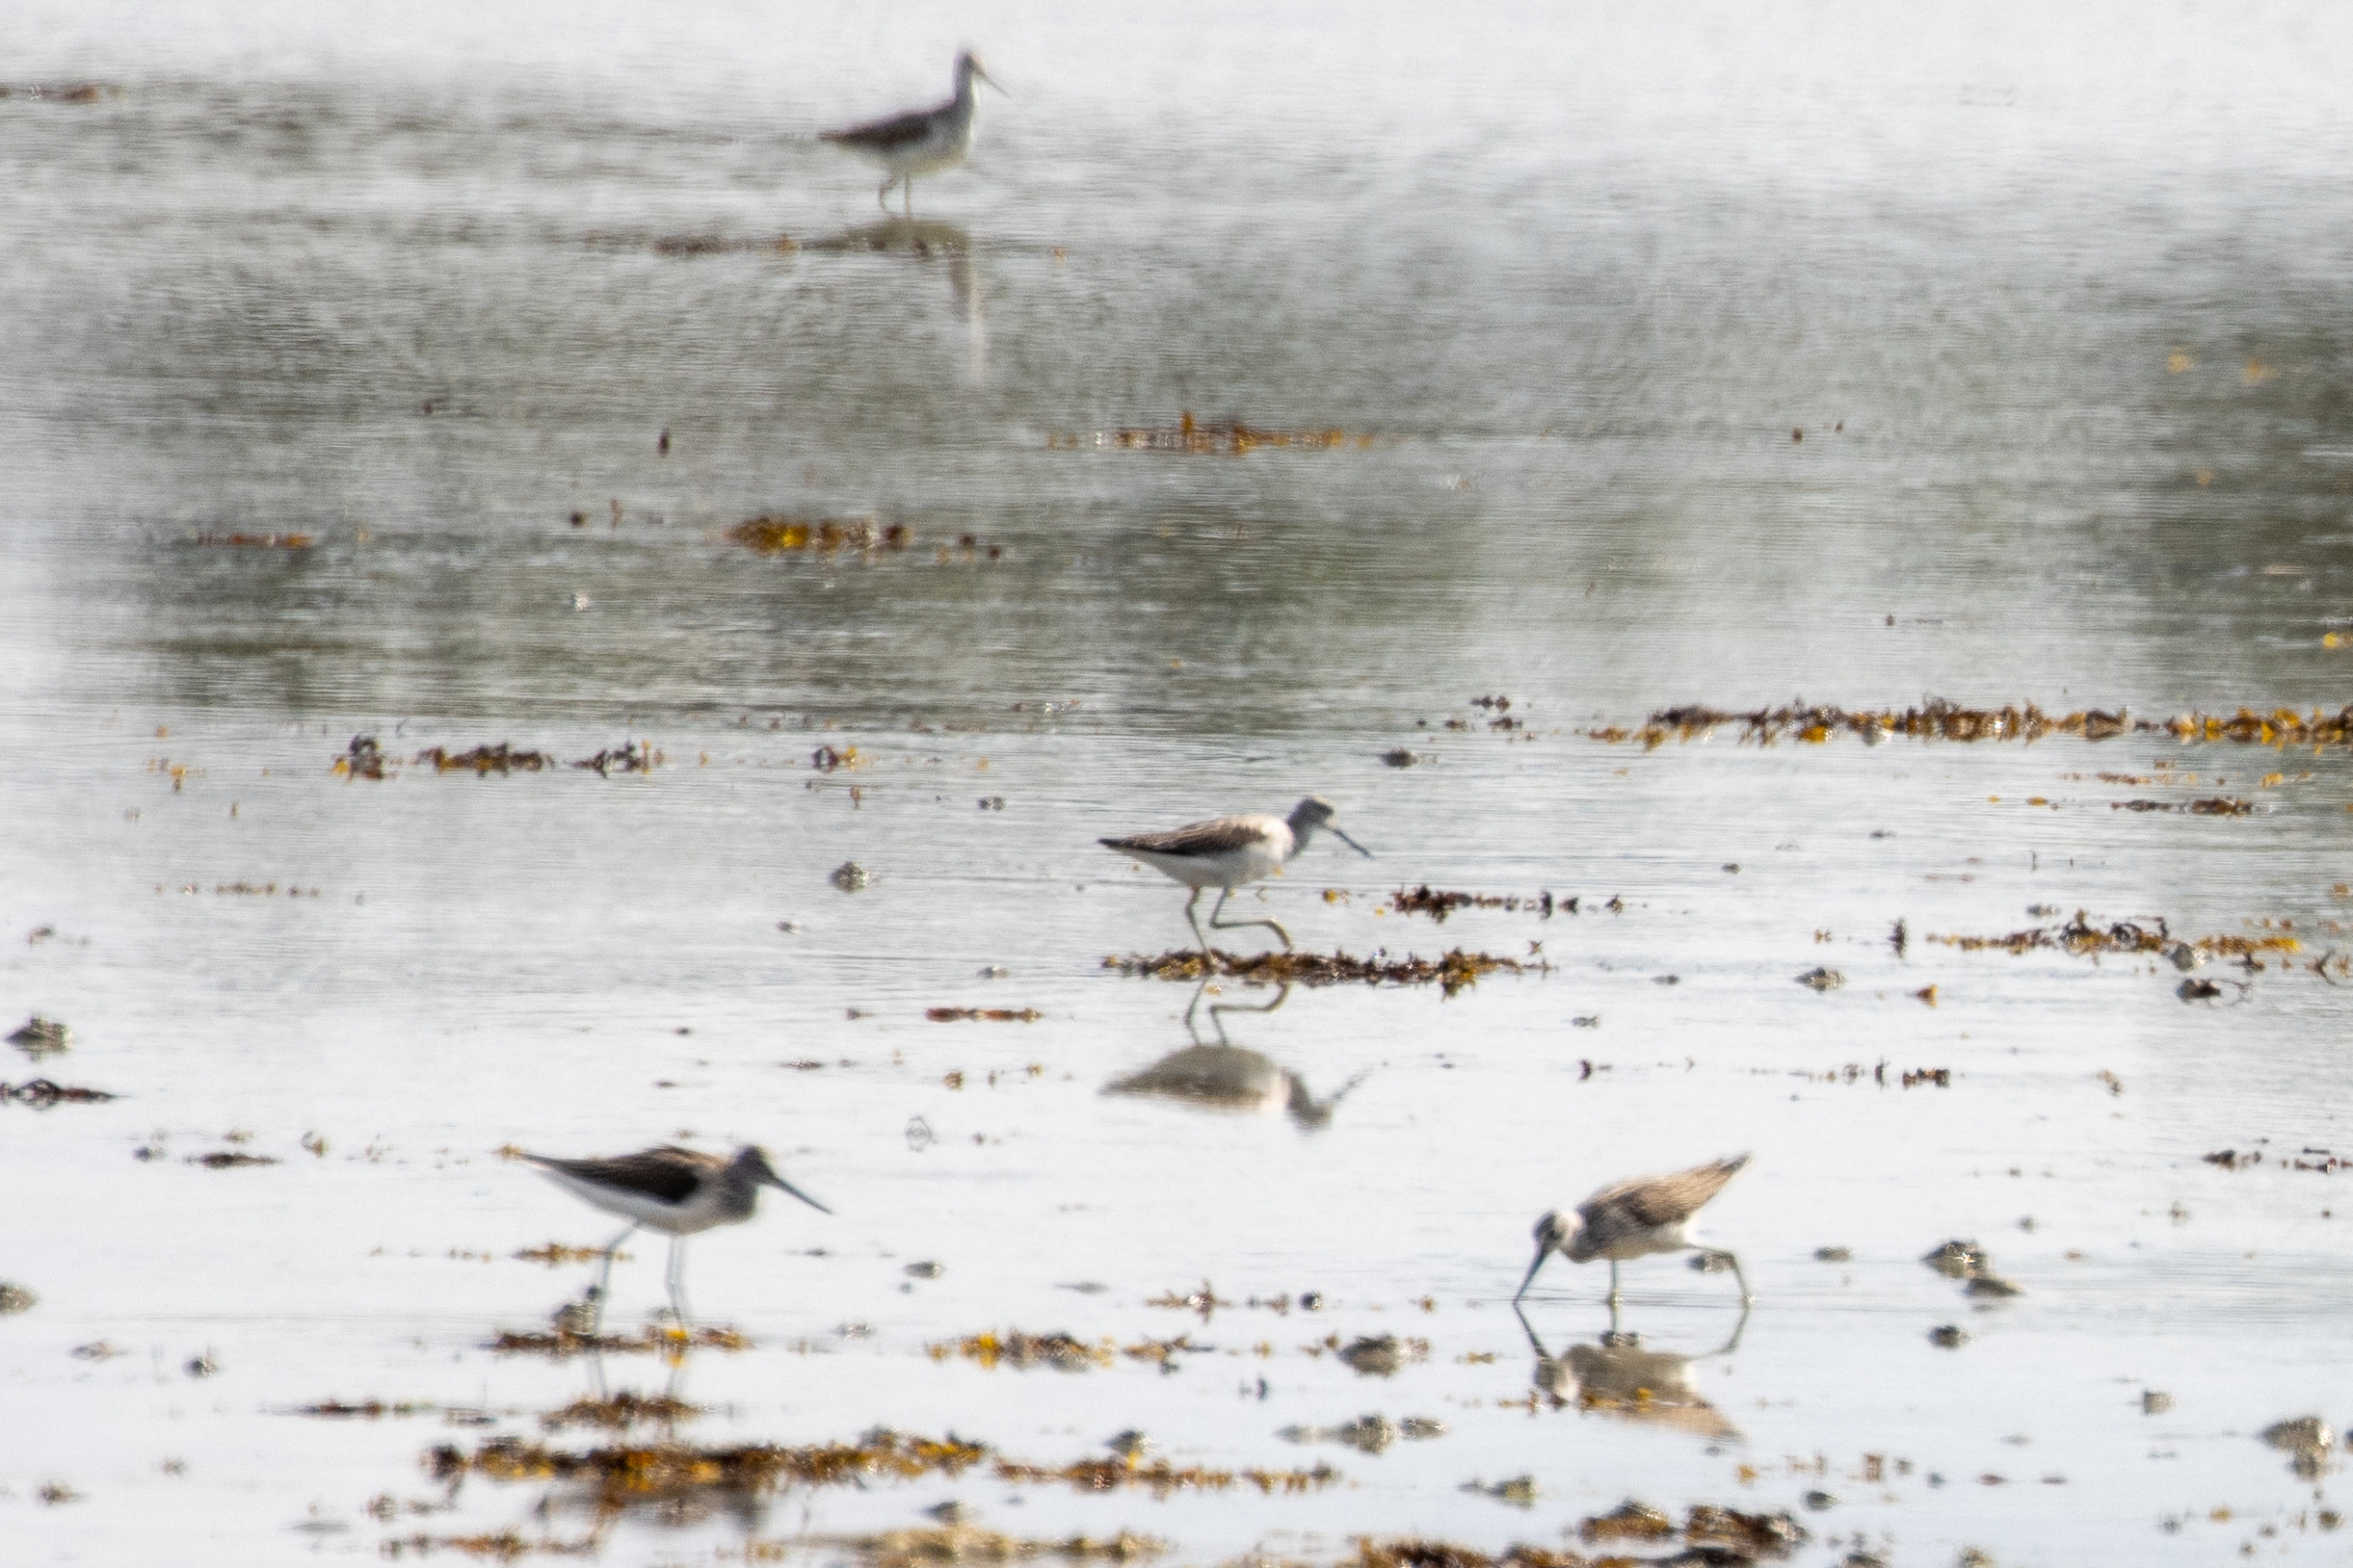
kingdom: Animalia
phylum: Chordata
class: Aves
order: Charadriiformes
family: Scolopacidae
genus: Tringa
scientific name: Tringa nebularia
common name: Hvidklire
